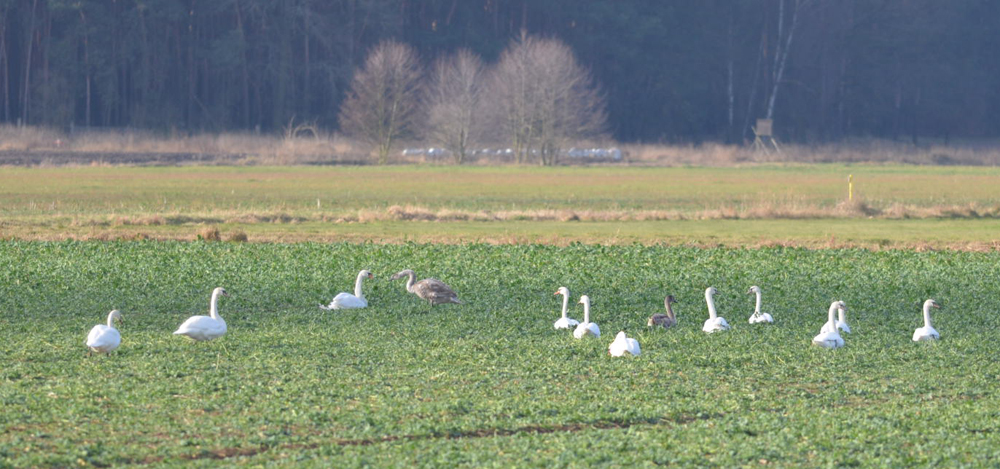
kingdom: Animalia
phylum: Chordata
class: Aves
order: Anseriformes
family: Anatidae
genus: Cygnus
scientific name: Cygnus olor
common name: Mute swan
